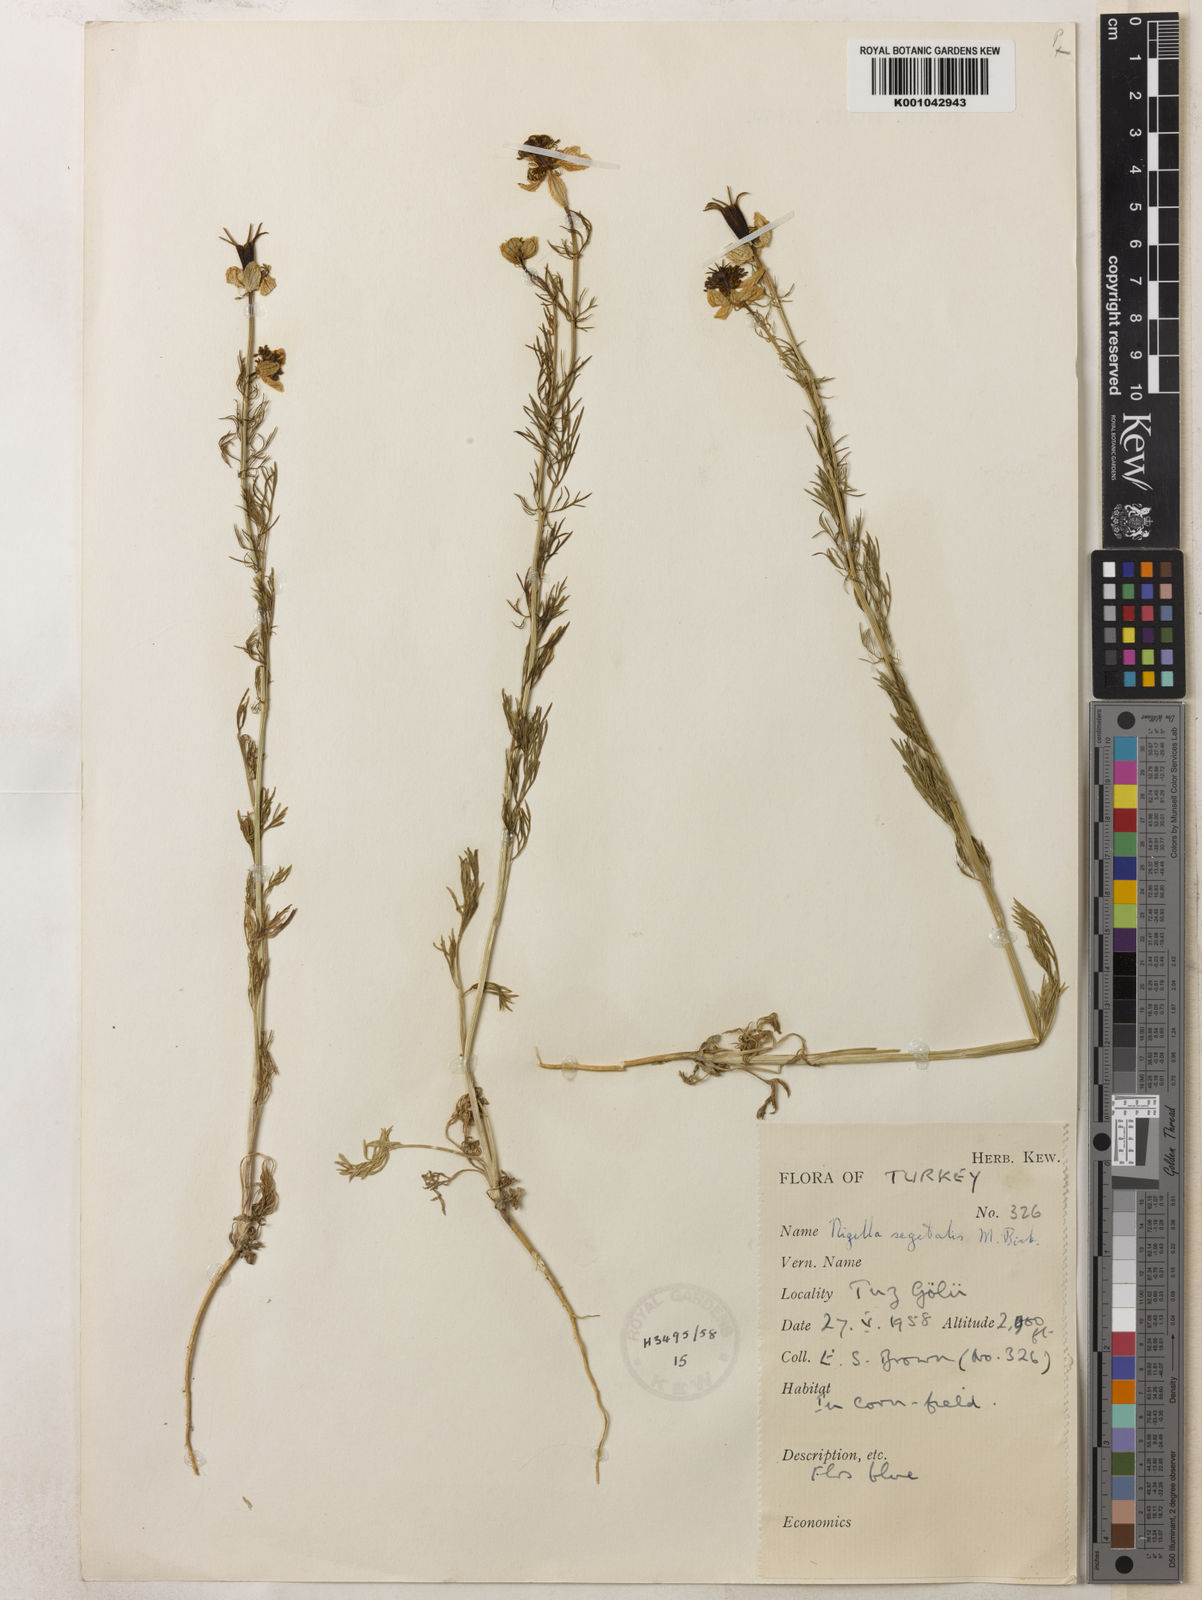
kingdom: Plantae
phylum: Tracheophyta
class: Magnoliopsida
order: Ranunculales
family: Ranunculaceae
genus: Nigella
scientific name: Nigella segetalis
